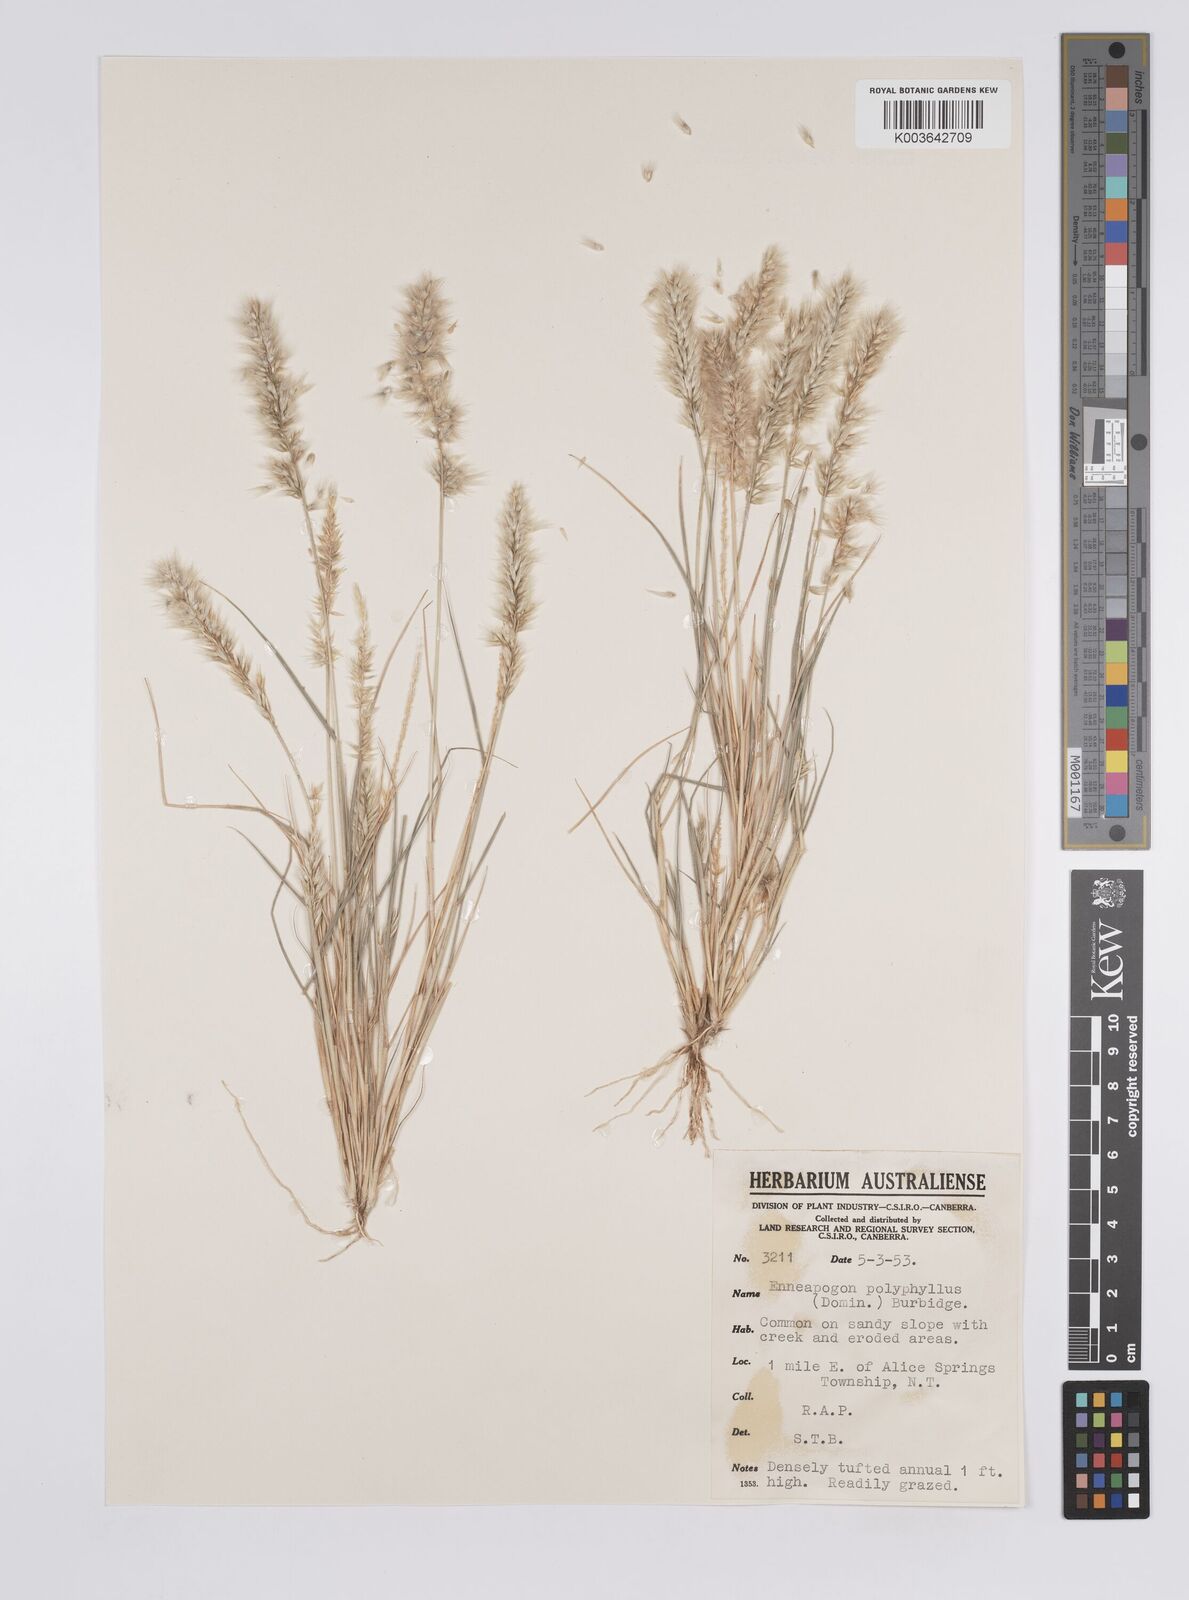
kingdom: Plantae
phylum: Tracheophyta
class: Liliopsida
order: Poales
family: Poaceae
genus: Enneapogon
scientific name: Enneapogon polyphyllus
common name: Leafy nineawn
